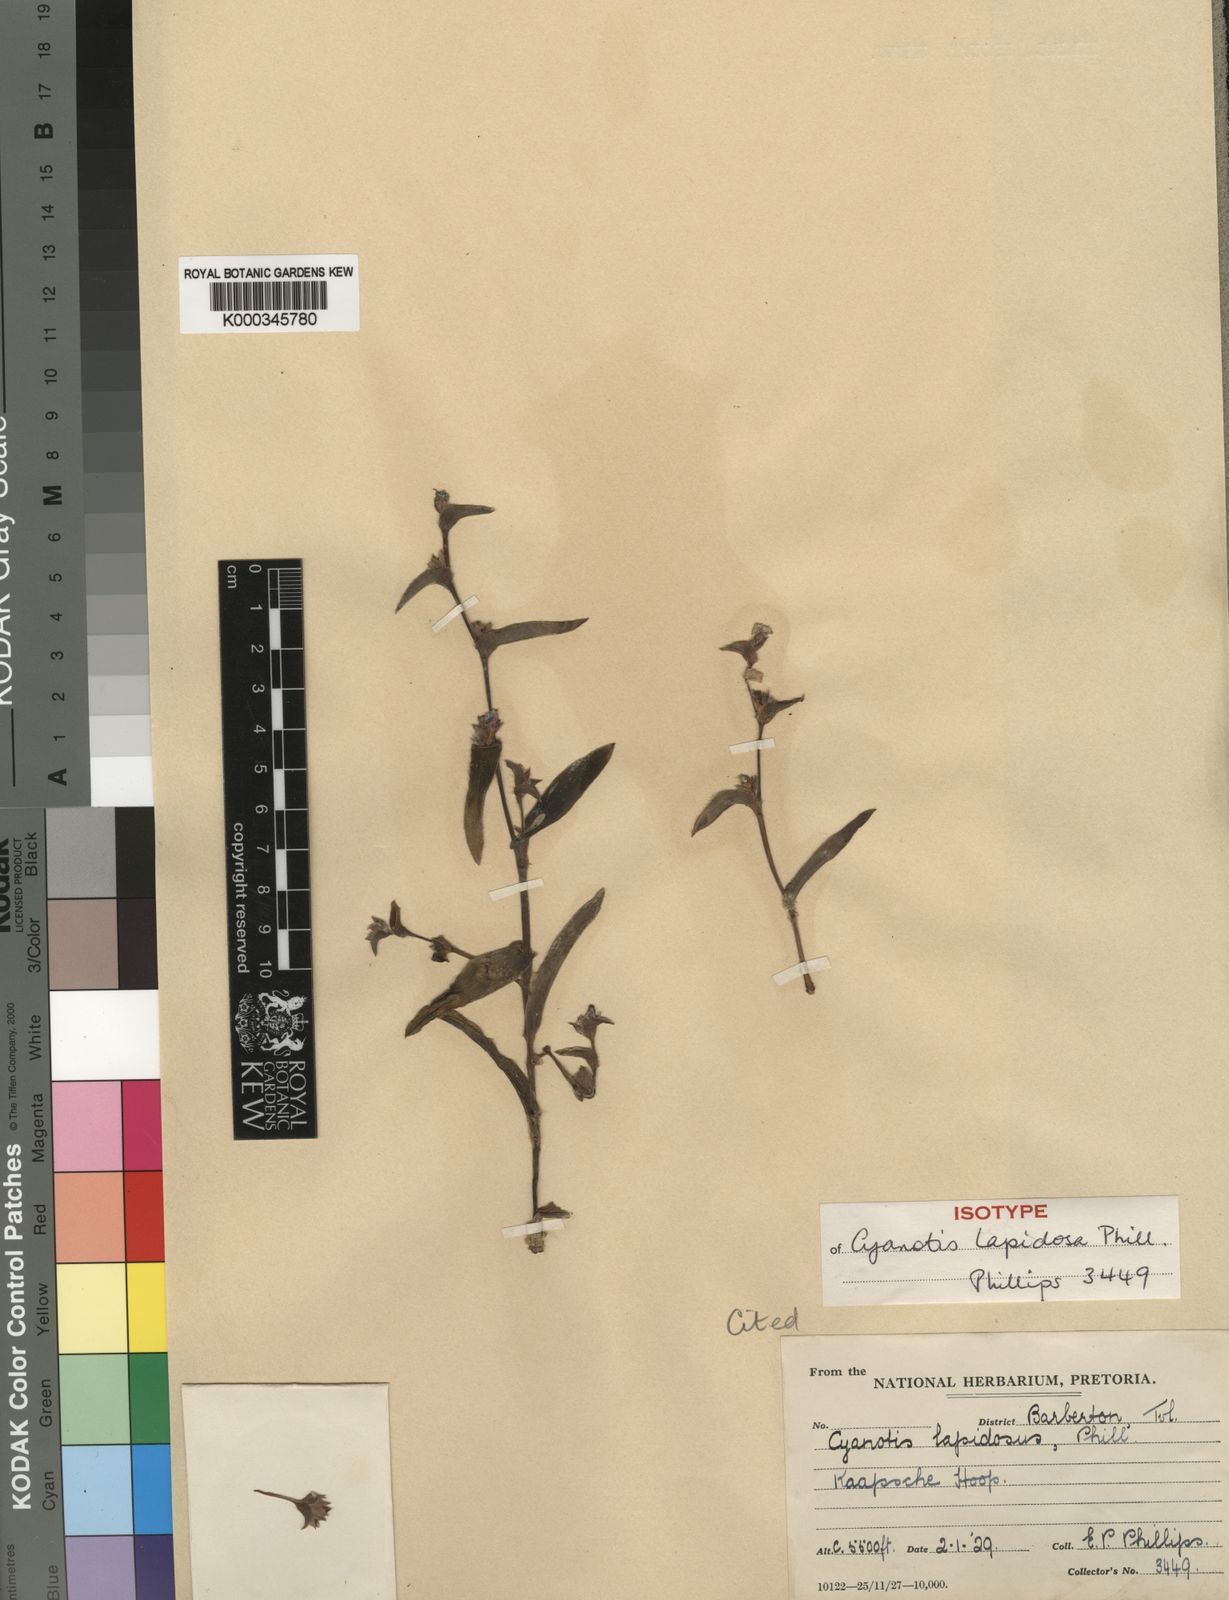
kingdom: Plantae
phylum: Tracheophyta
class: Liliopsida
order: Commelinales
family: Commelinaceae
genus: Cyanotis
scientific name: Cyanotis lapidosa
